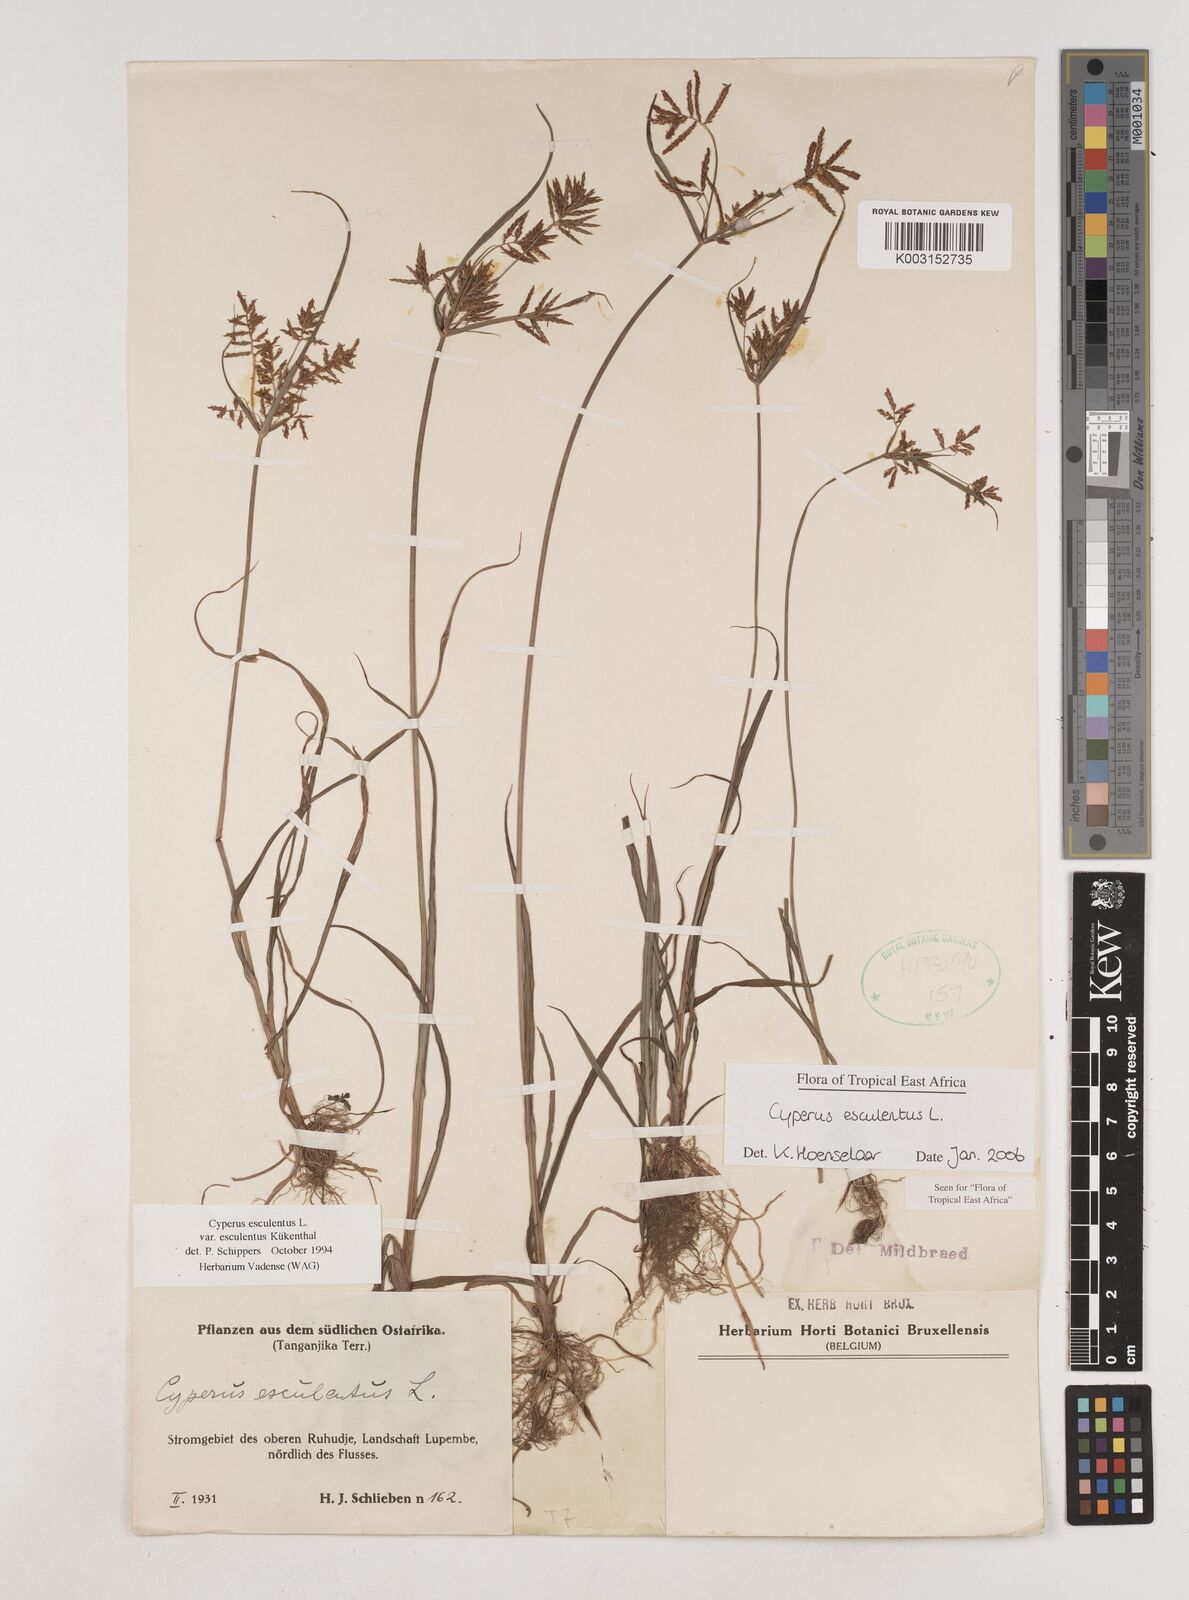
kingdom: Plantae
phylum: Tracheophyta
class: Liliopsida
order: Poales
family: Cyperaceae
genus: Cyperus
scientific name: Cyperus esculentus
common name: Yellow nutsedge
